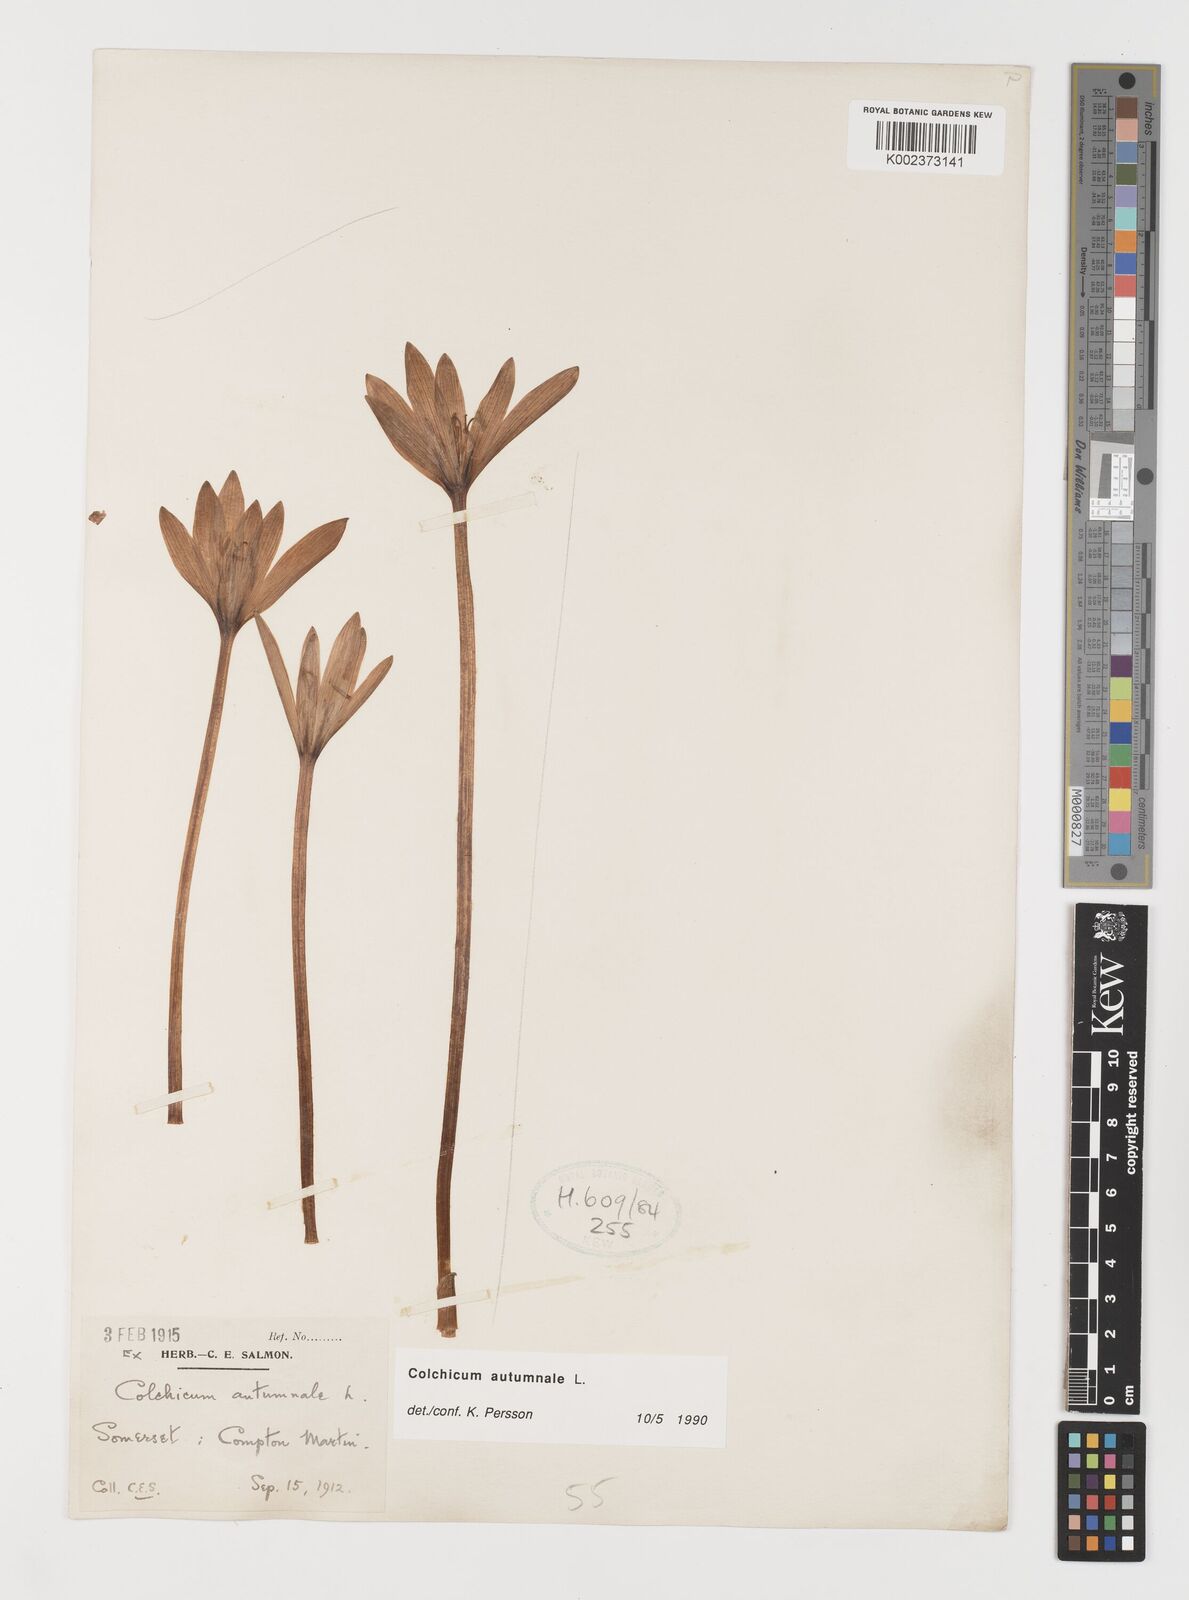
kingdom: Plantae
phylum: Tracheophyta
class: Liliopsida
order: Liliales
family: Colchicaceae
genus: Colchicum
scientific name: Colchicum autumnale
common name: Autumn crocus
